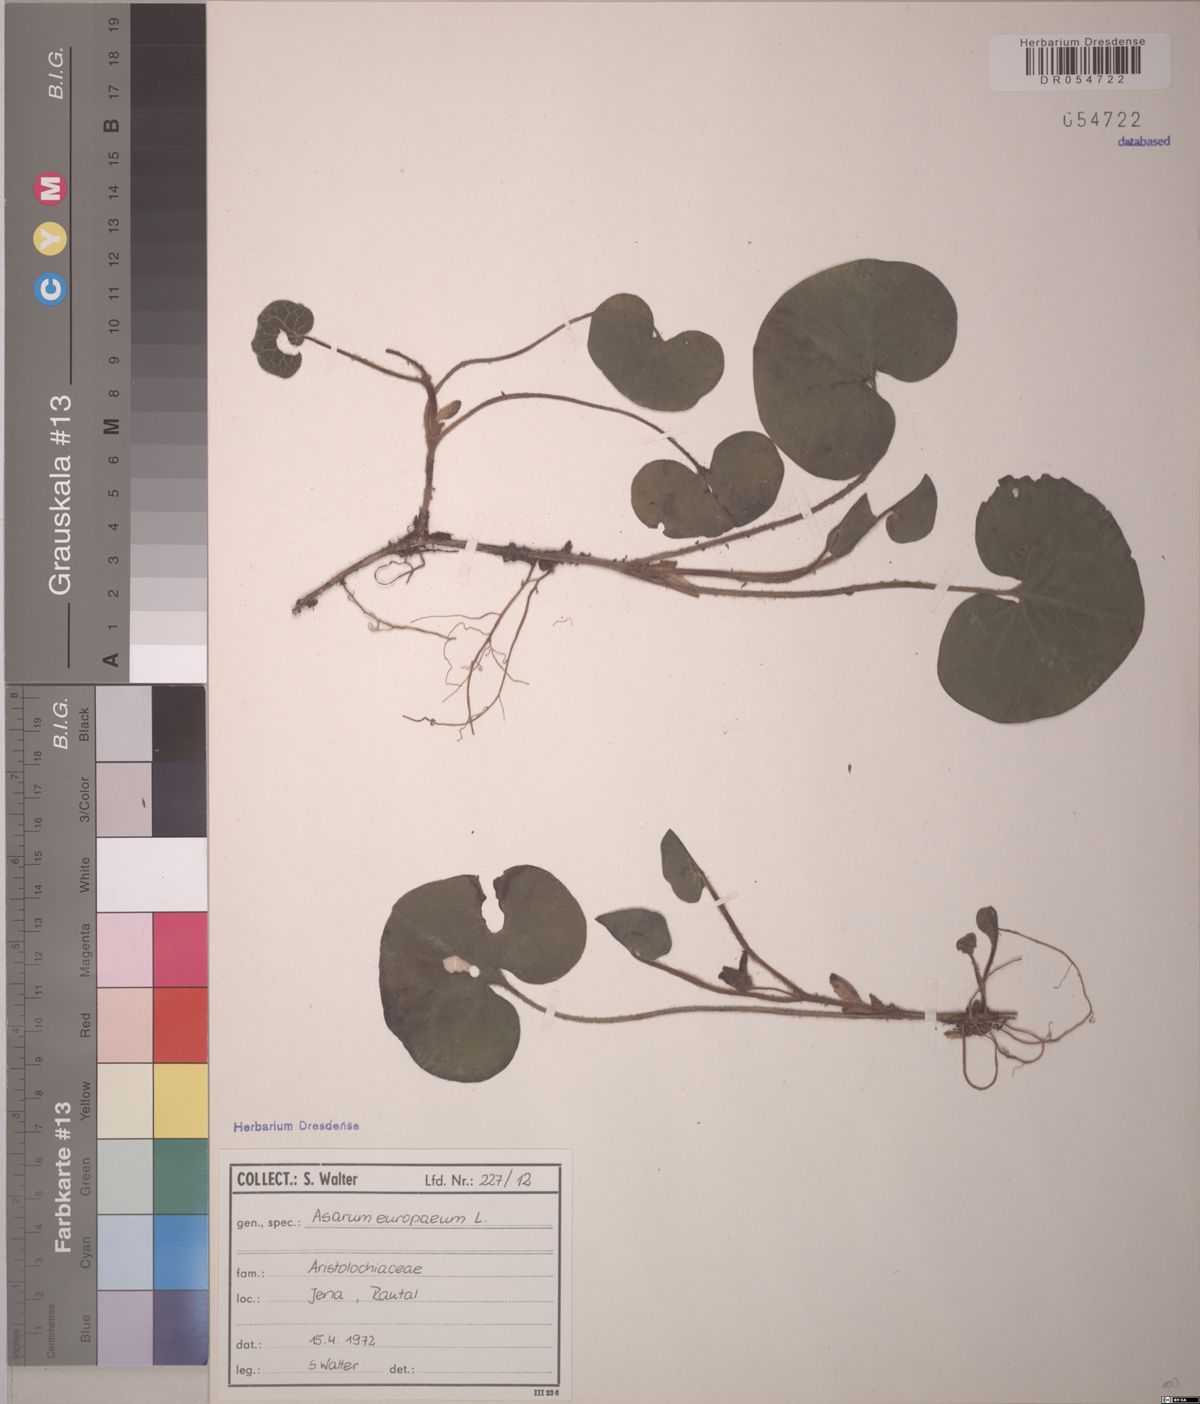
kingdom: Plantae
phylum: Tracheophyta
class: Magnoliopsida
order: Piperales
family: Aristolochiaceae
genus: Asarum
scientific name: Asarum europaeum
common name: Asarabacca
